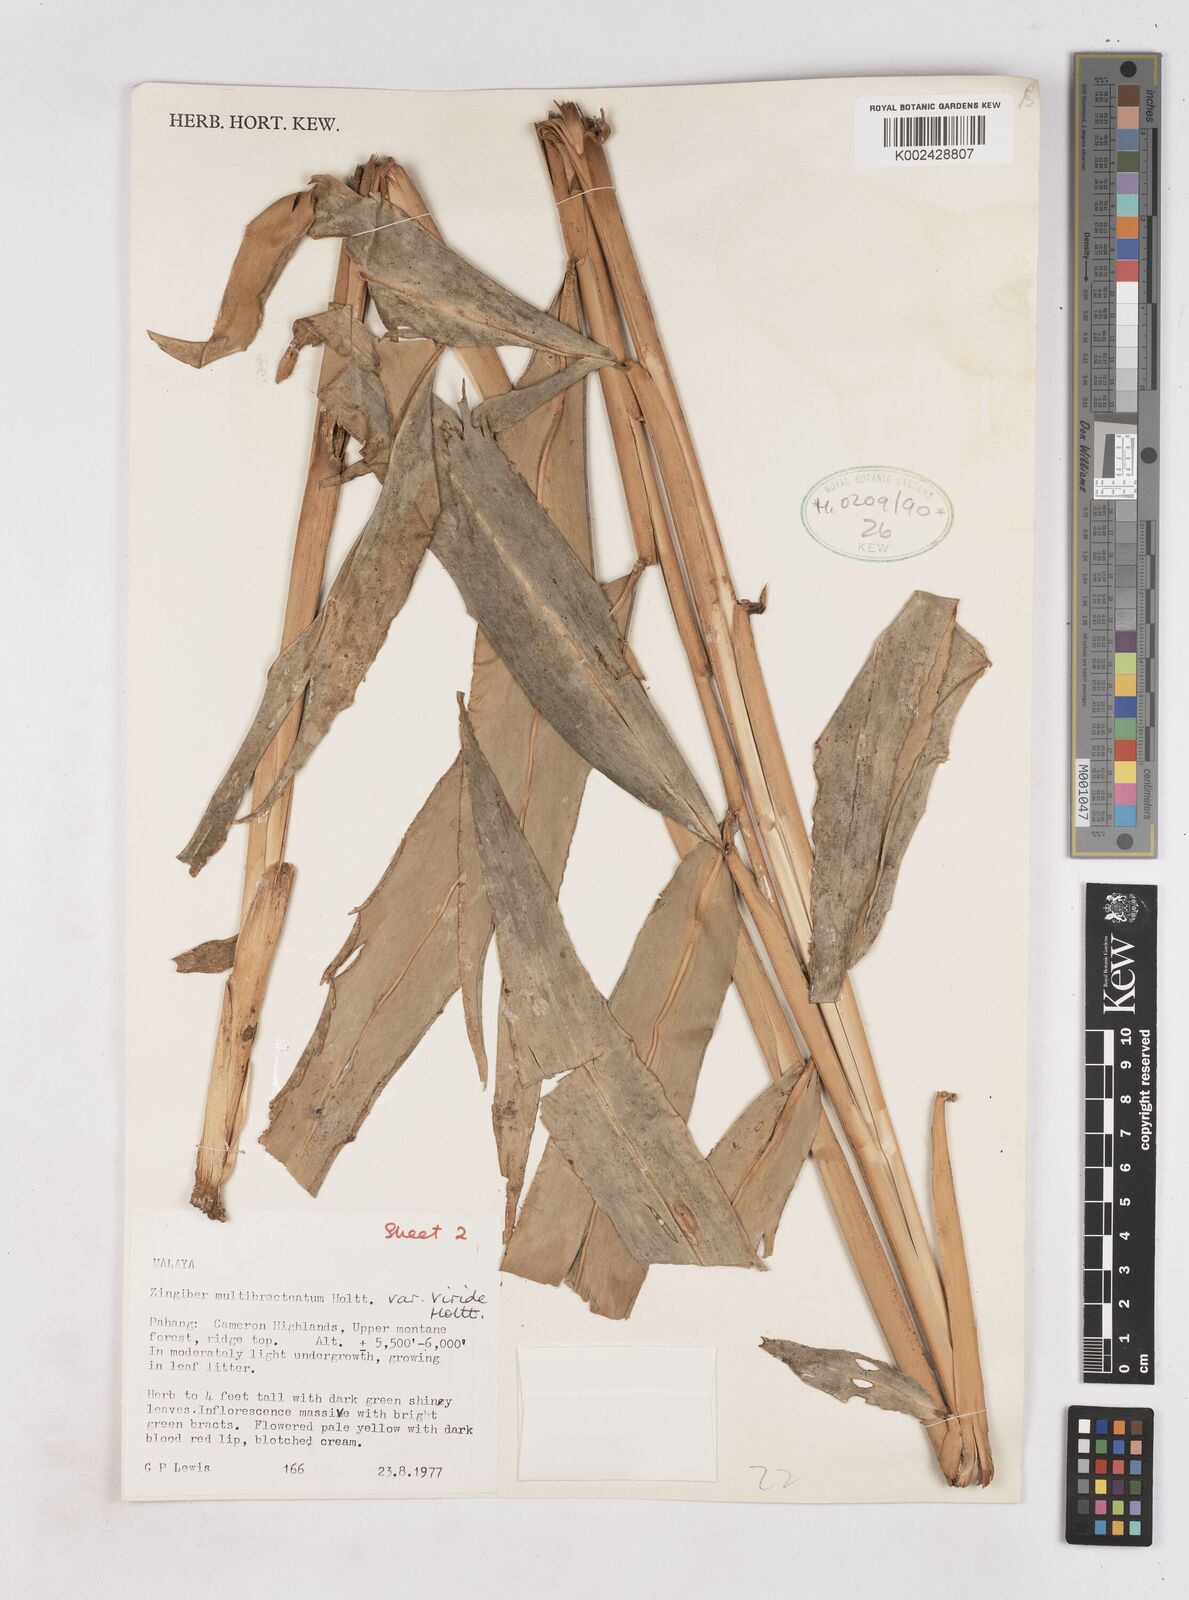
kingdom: Plantae
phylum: Tracheophyta
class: Liliopsida
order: Zingiberales
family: Zingiberaceae
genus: Zingiber
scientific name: Zingiber multibracteatum
